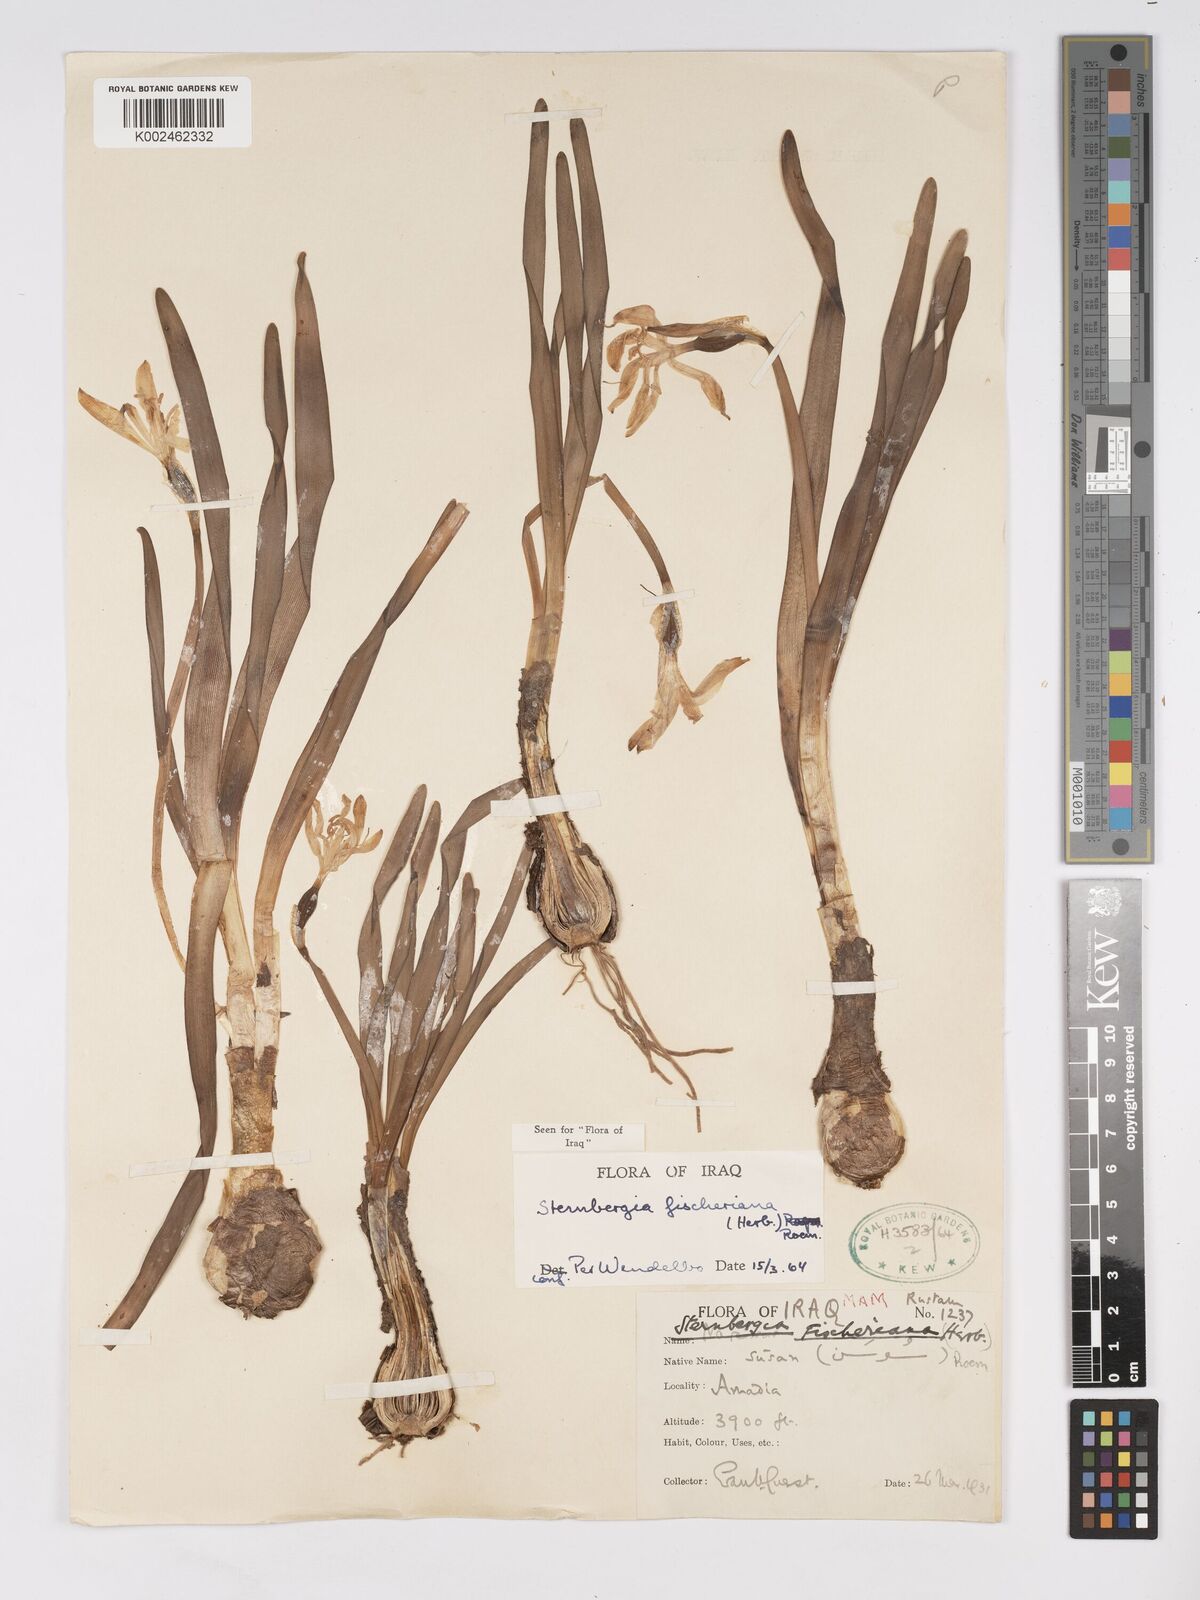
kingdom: Plantae
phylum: Tracheophyta
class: Liliopsida
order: Asparagales
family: Amaryllidaceae
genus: Sternbergia
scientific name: Sternbergia vernalis
